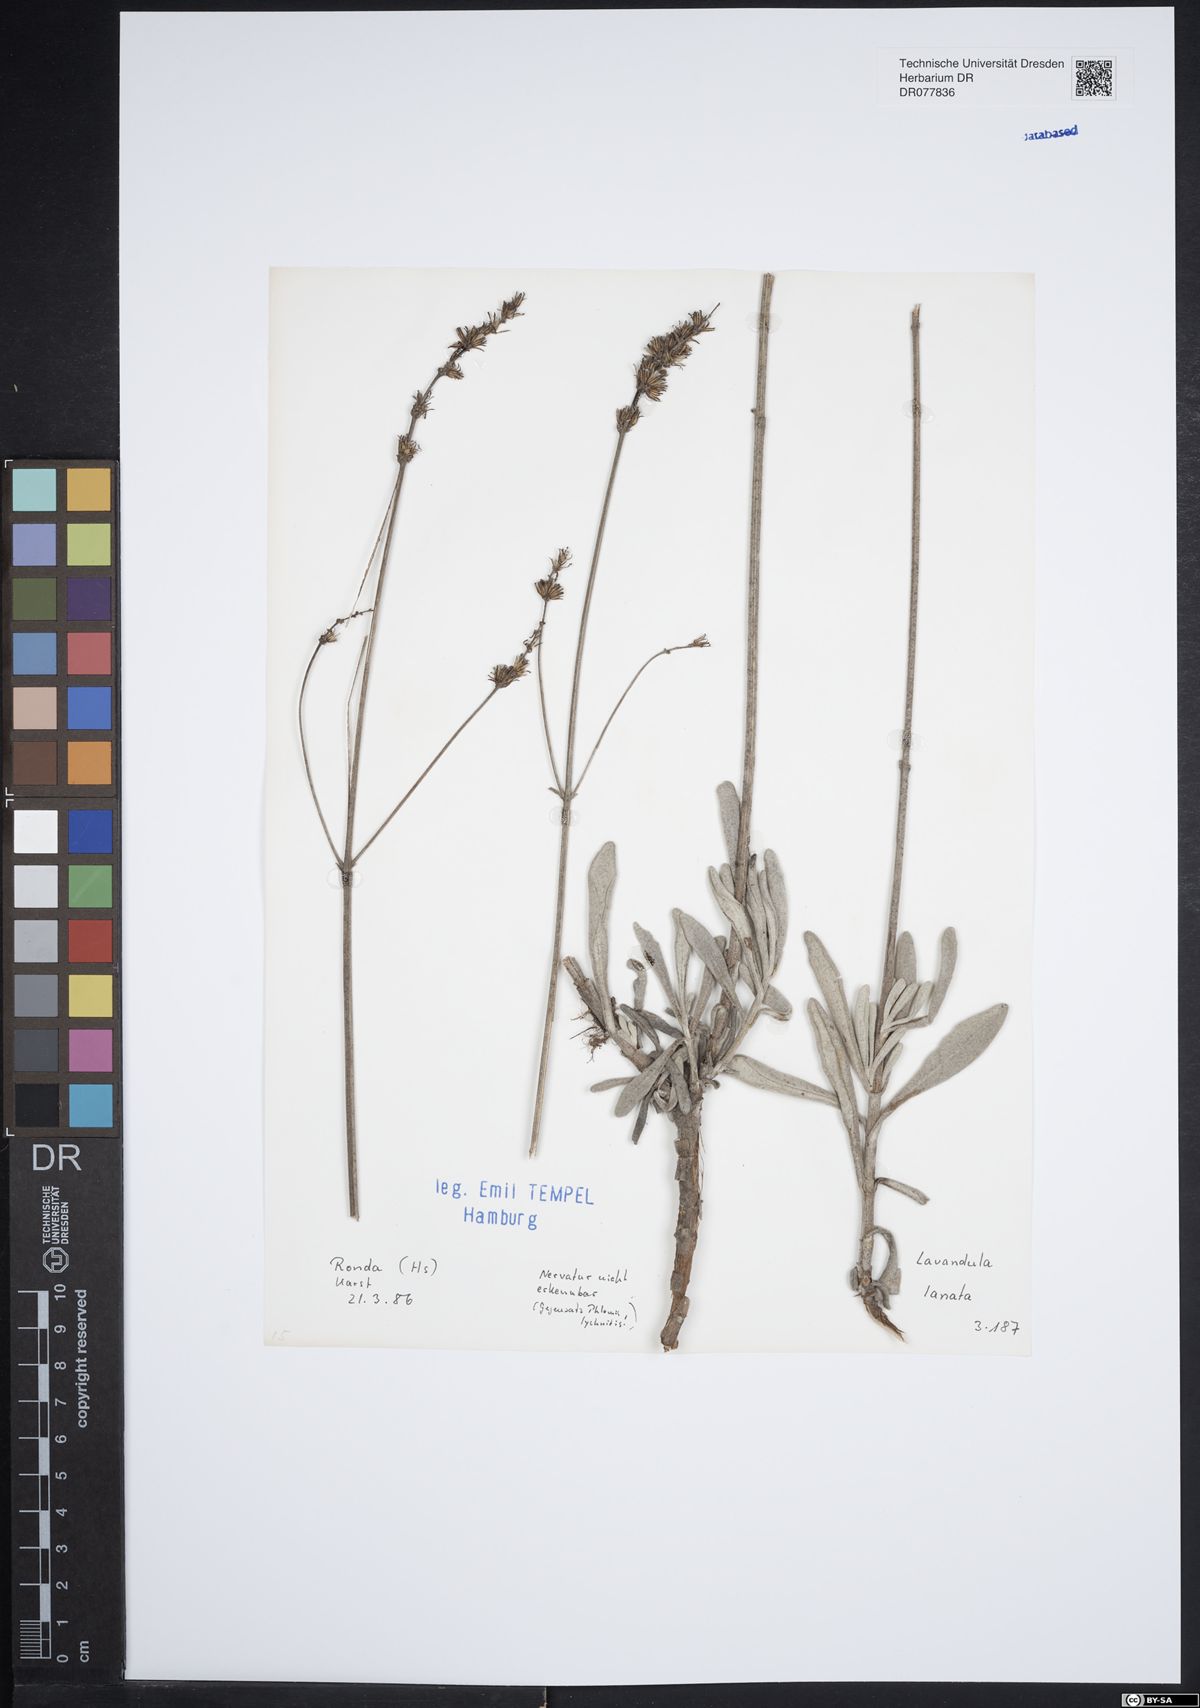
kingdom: Plantae
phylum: Tracheophyta
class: Magnoliopsida
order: Lamiales
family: Lamiaceae
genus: Lavandula
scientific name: Lavandula lanata
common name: Woolly lavender
